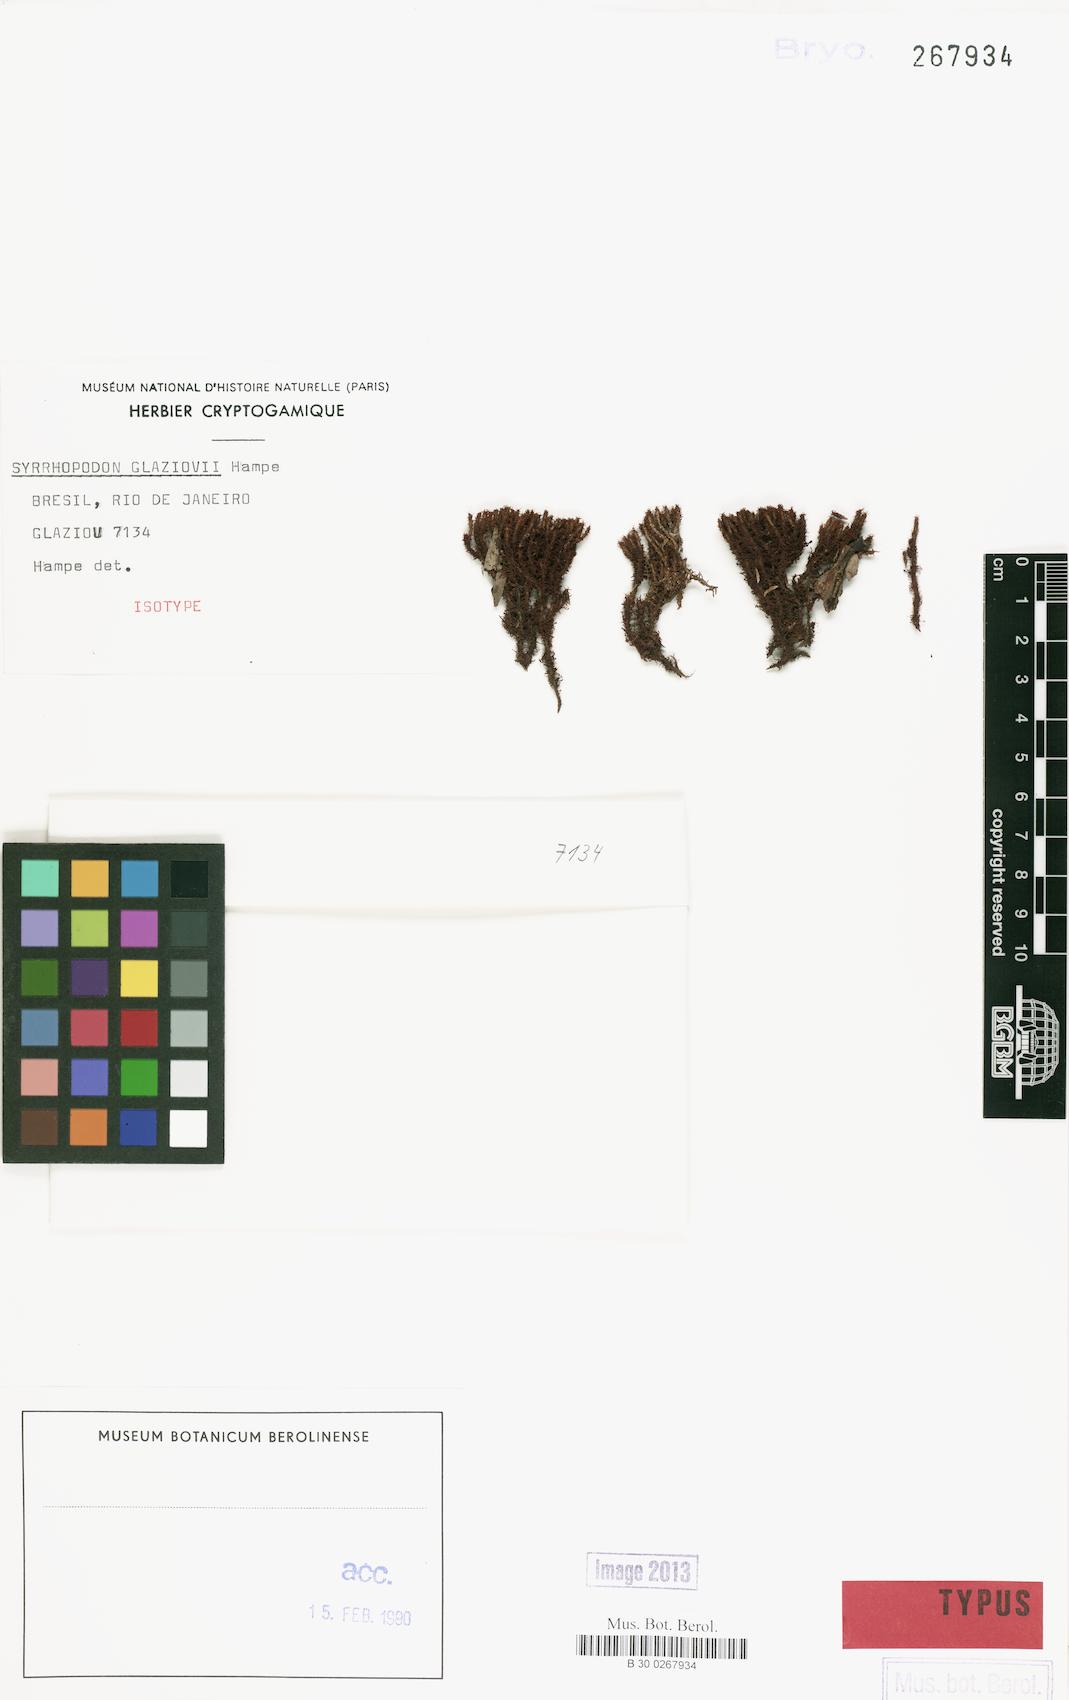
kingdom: Plantae
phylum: Bryophyta
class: Bryopsida
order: Dicranales
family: Calymperaceae
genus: Syrrhopodon
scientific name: Syrrhopodon elongatus
